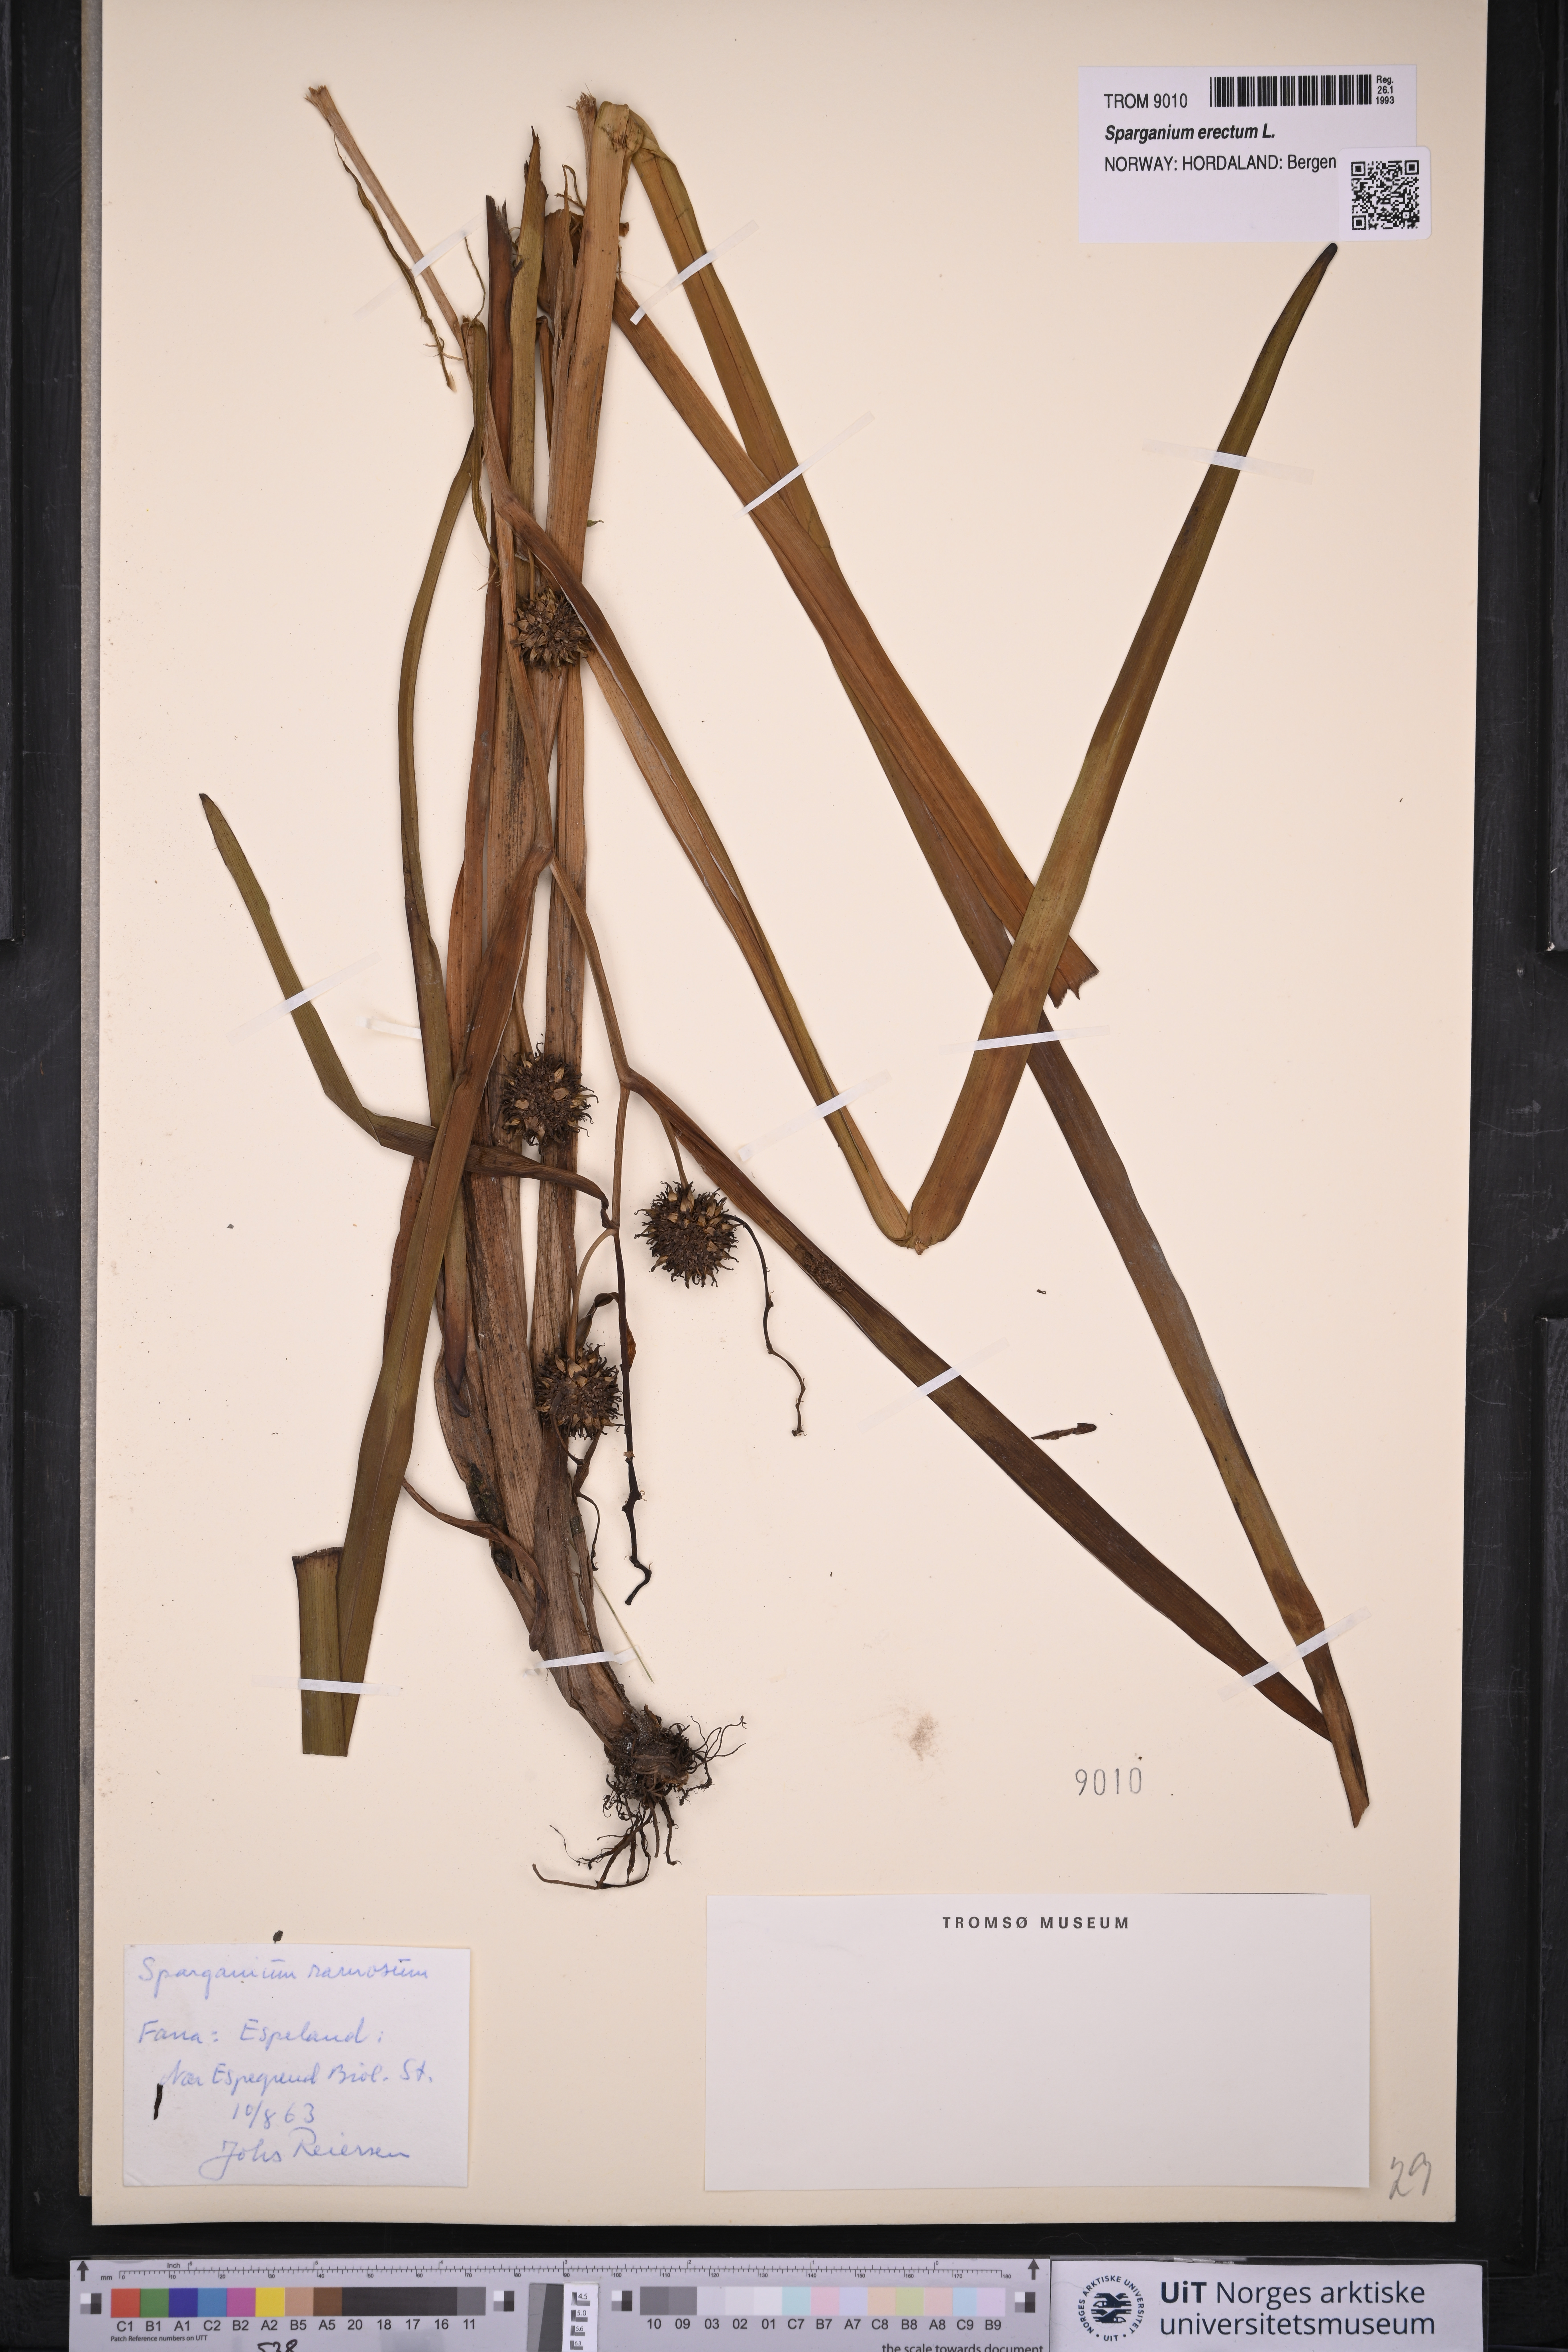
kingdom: Plantae
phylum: Tracheophyta
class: Liliopsida
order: Poales
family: Typhaceae
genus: Sparganium
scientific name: Sparganium erectum
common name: Branched bur-reed
